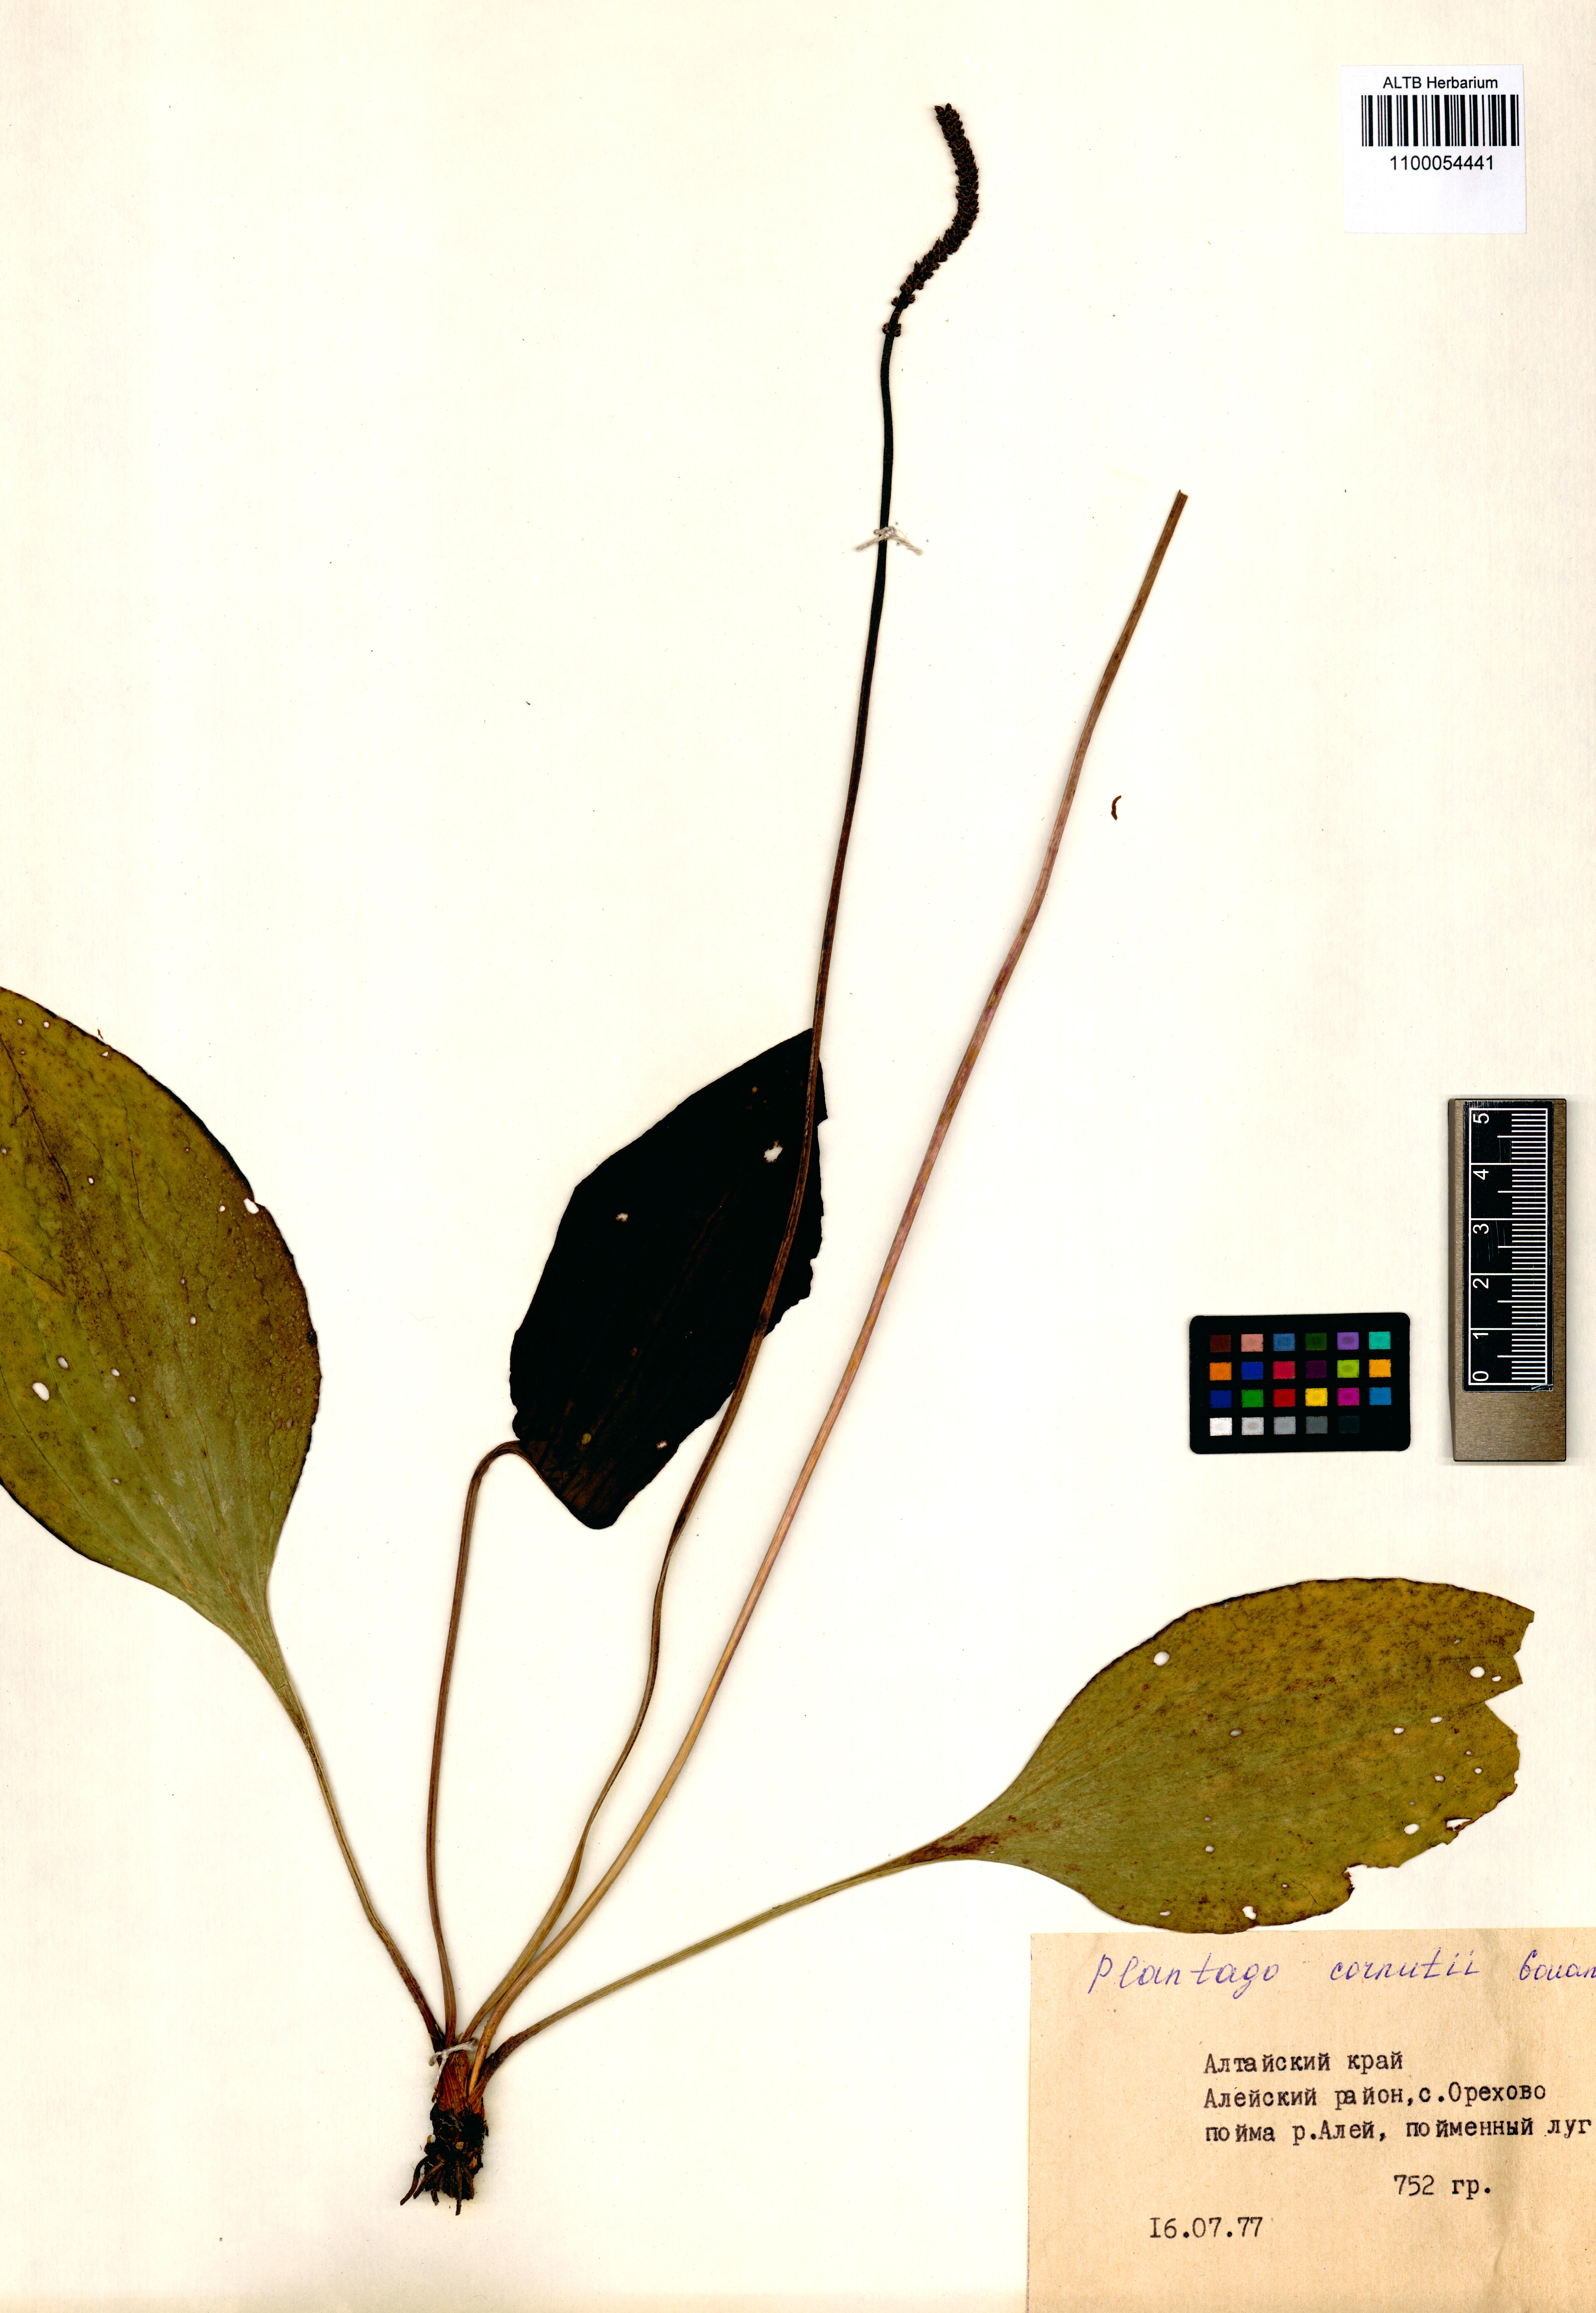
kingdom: Plantae
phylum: Tracheophyta
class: Magnoliopsida
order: Lamiales
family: Plantaginaceae
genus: Plantago
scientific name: Plantago cornuti
